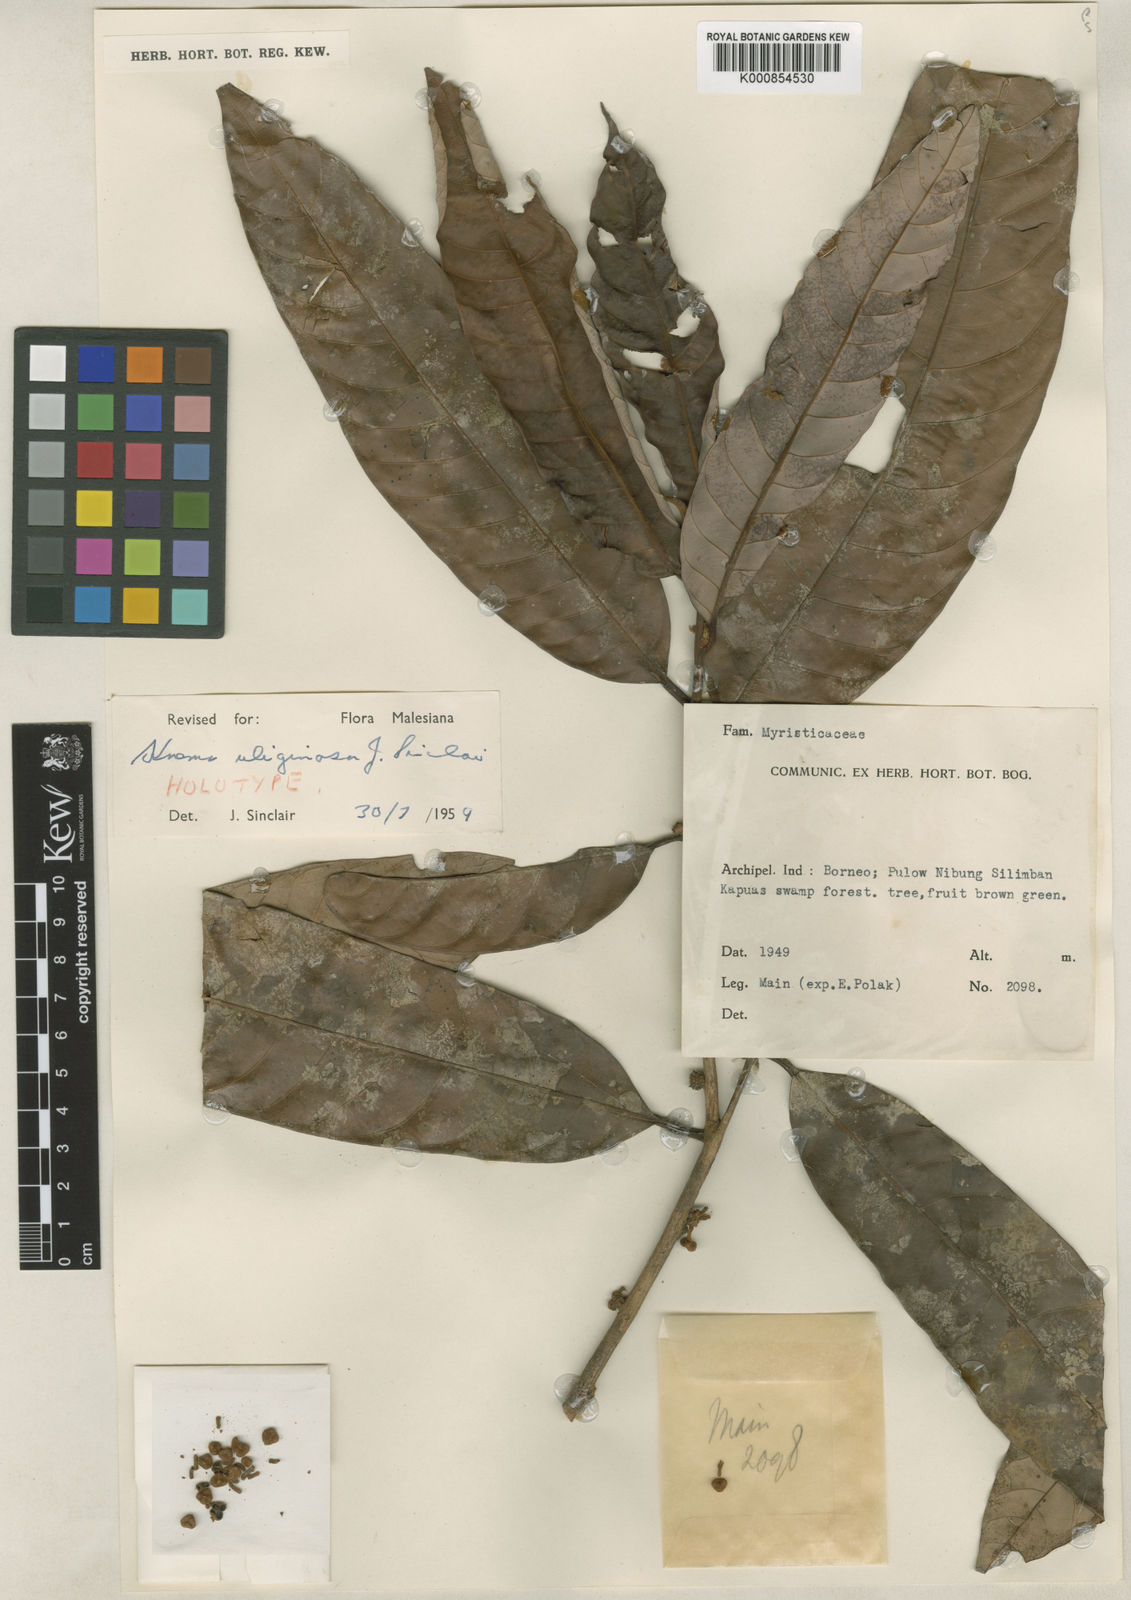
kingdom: Plantae
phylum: Tracheophyta
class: Magnoliopsida
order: Magnoliales
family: Myristicaceae
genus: Knema
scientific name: Knema uliginosa
